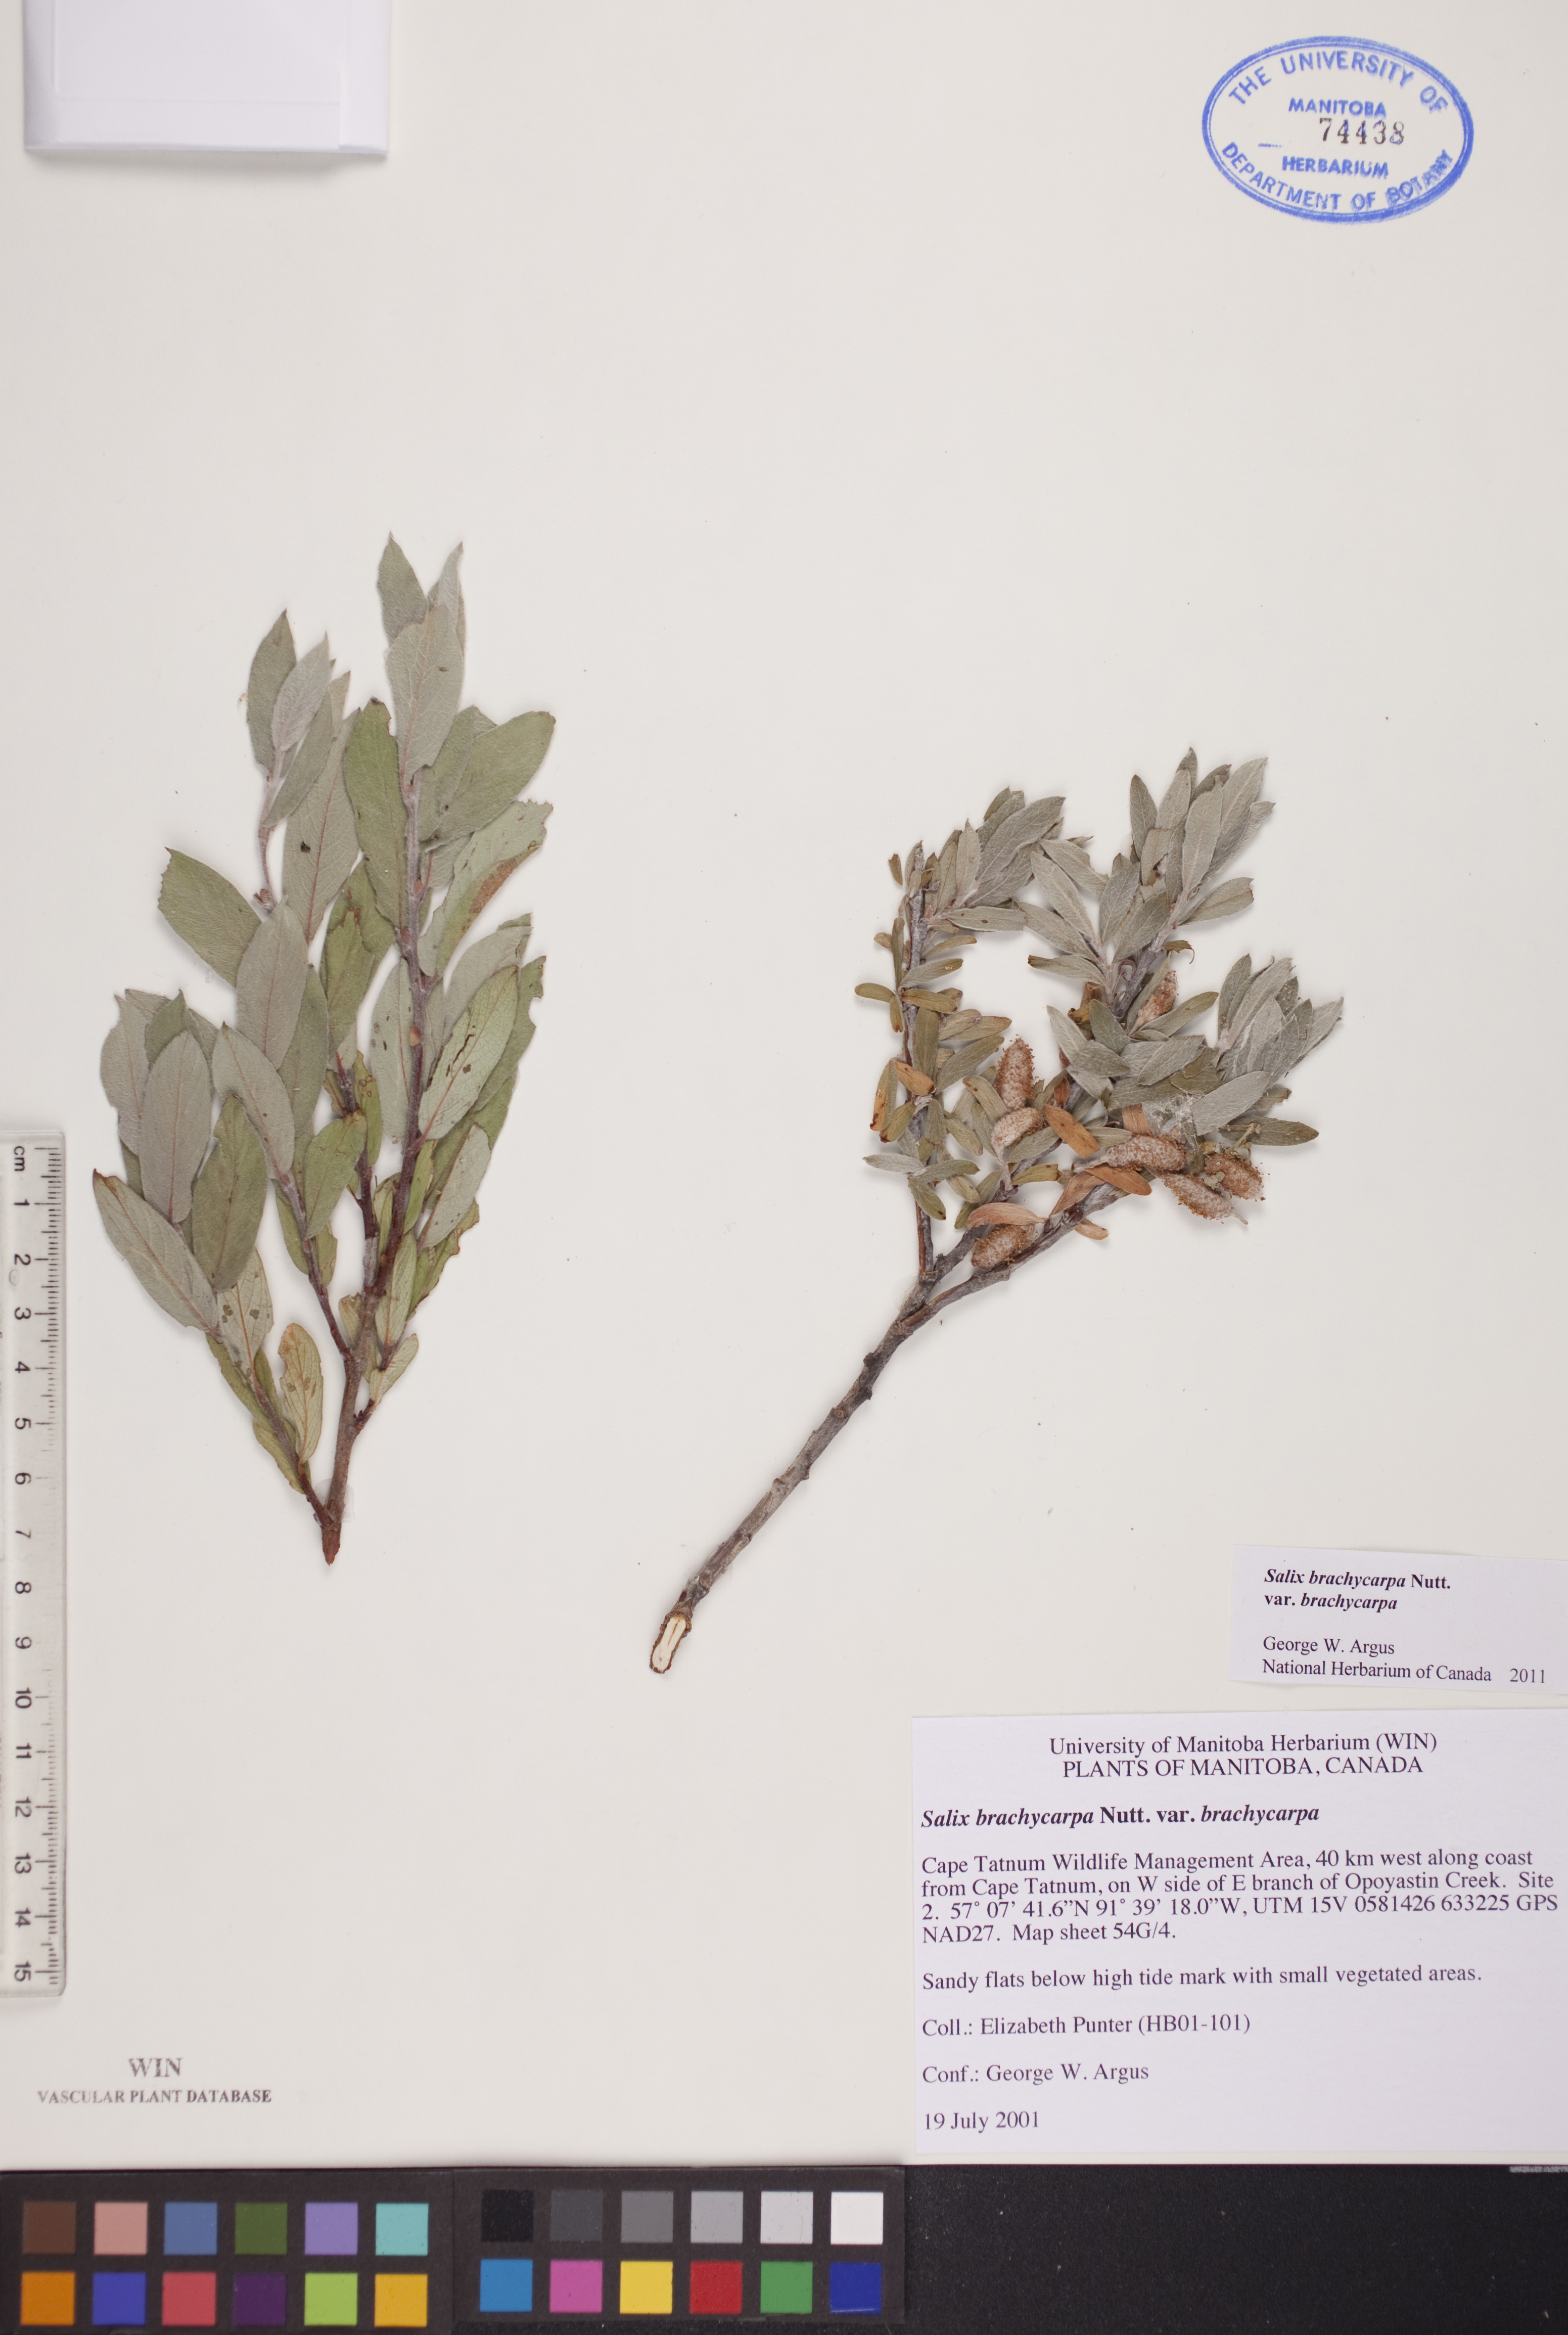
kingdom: Plantae
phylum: Tracheophyta
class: Magnoliopsida
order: Malpighiales
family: Salicaceae
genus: Salix
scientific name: Salix brachycarpa
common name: Barren-ground willow
